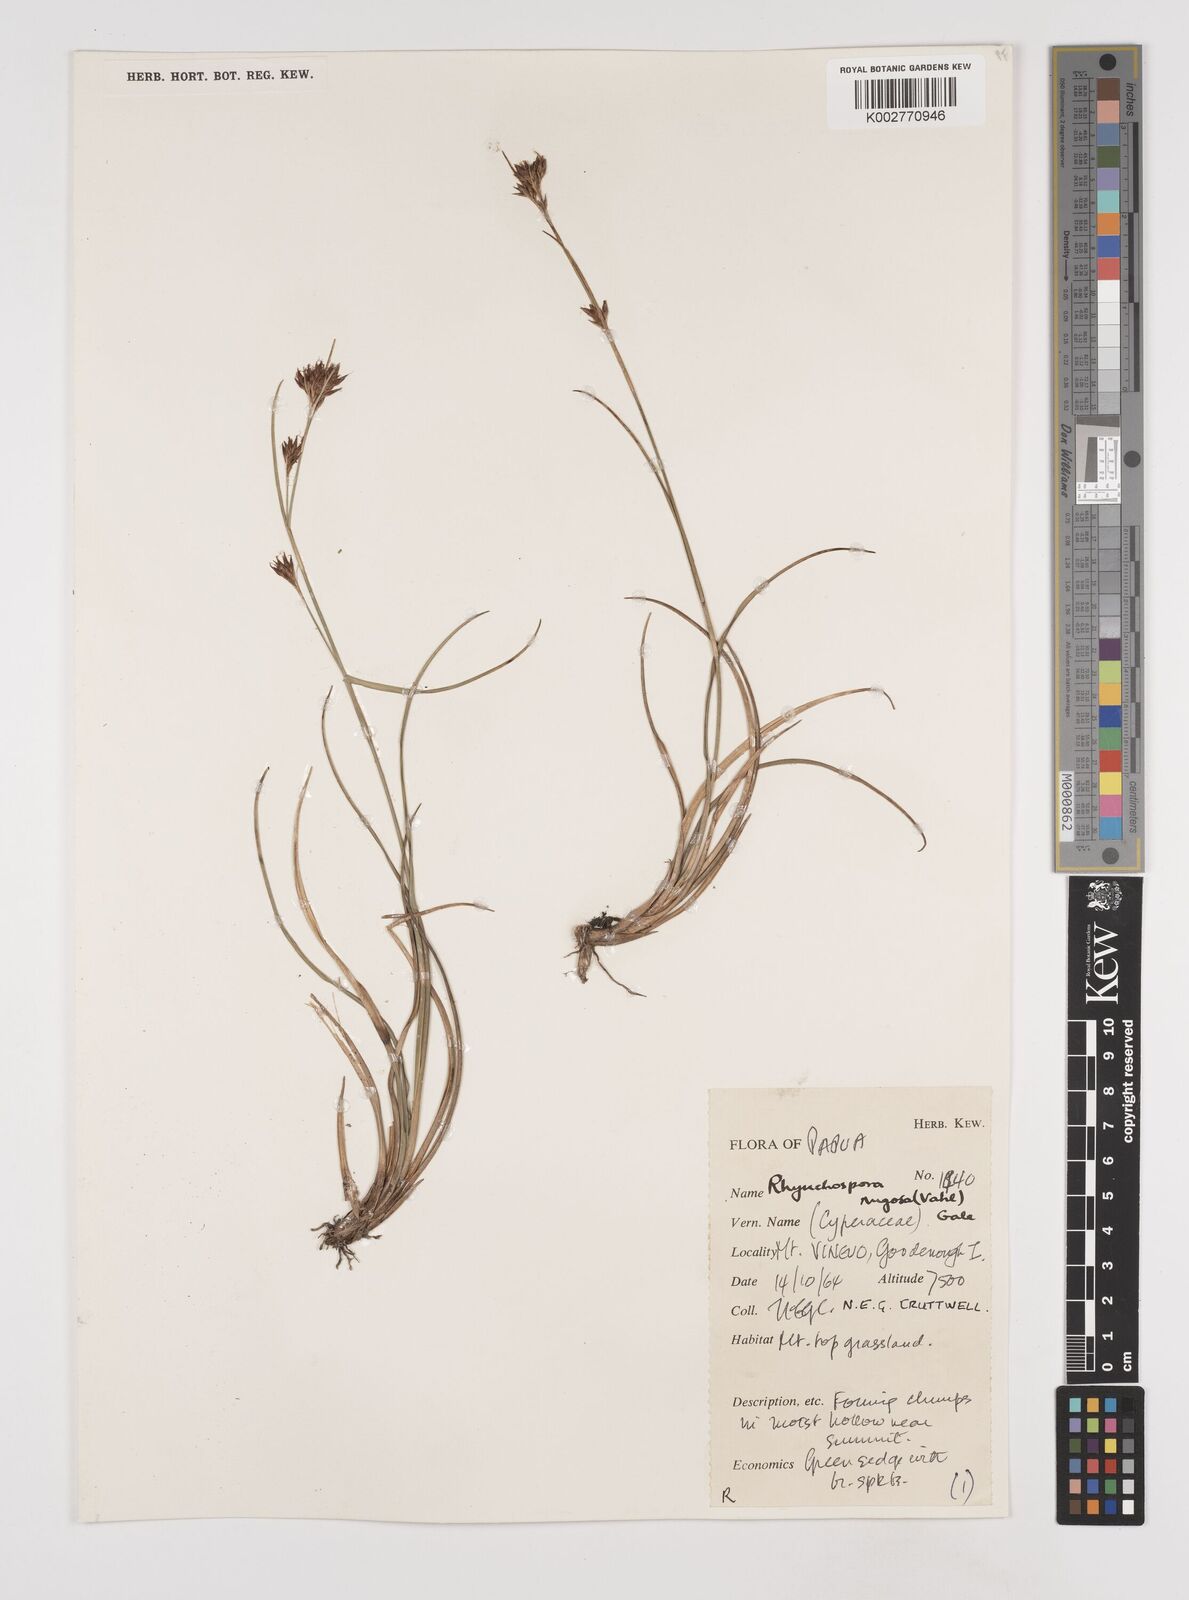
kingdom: Plantae
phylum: Tracheophyta
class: Liliopsida
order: Poales
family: Cyperaceae
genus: Rhynchospora
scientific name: Rhynchospora rugosa
